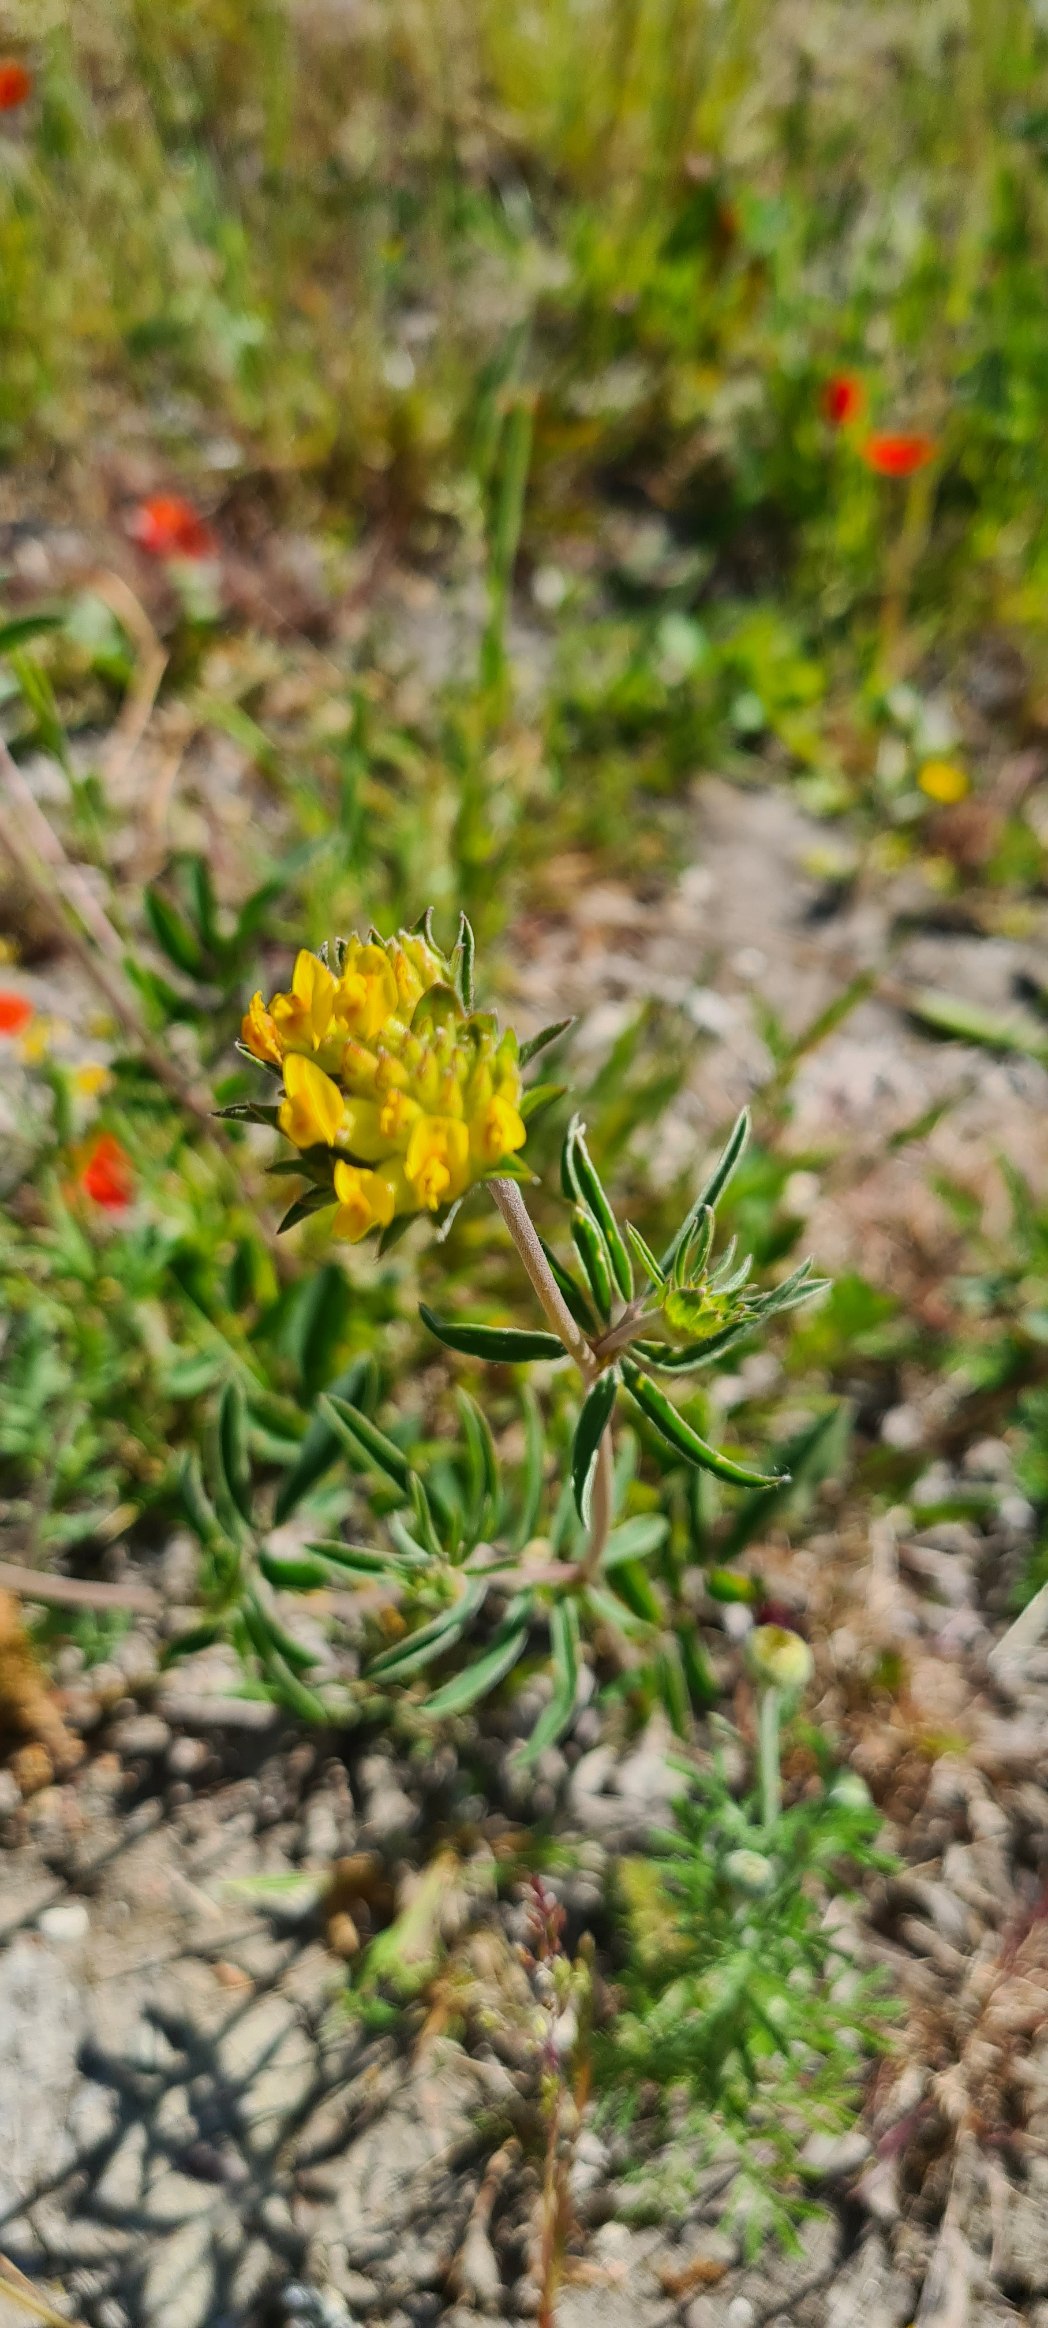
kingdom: Plantae
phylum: Tracheophyta
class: Magnoliopsida
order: Fabales
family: Fabaceae
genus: Anthyllis
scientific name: Anthyllis vulneraria
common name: Rundbælg
